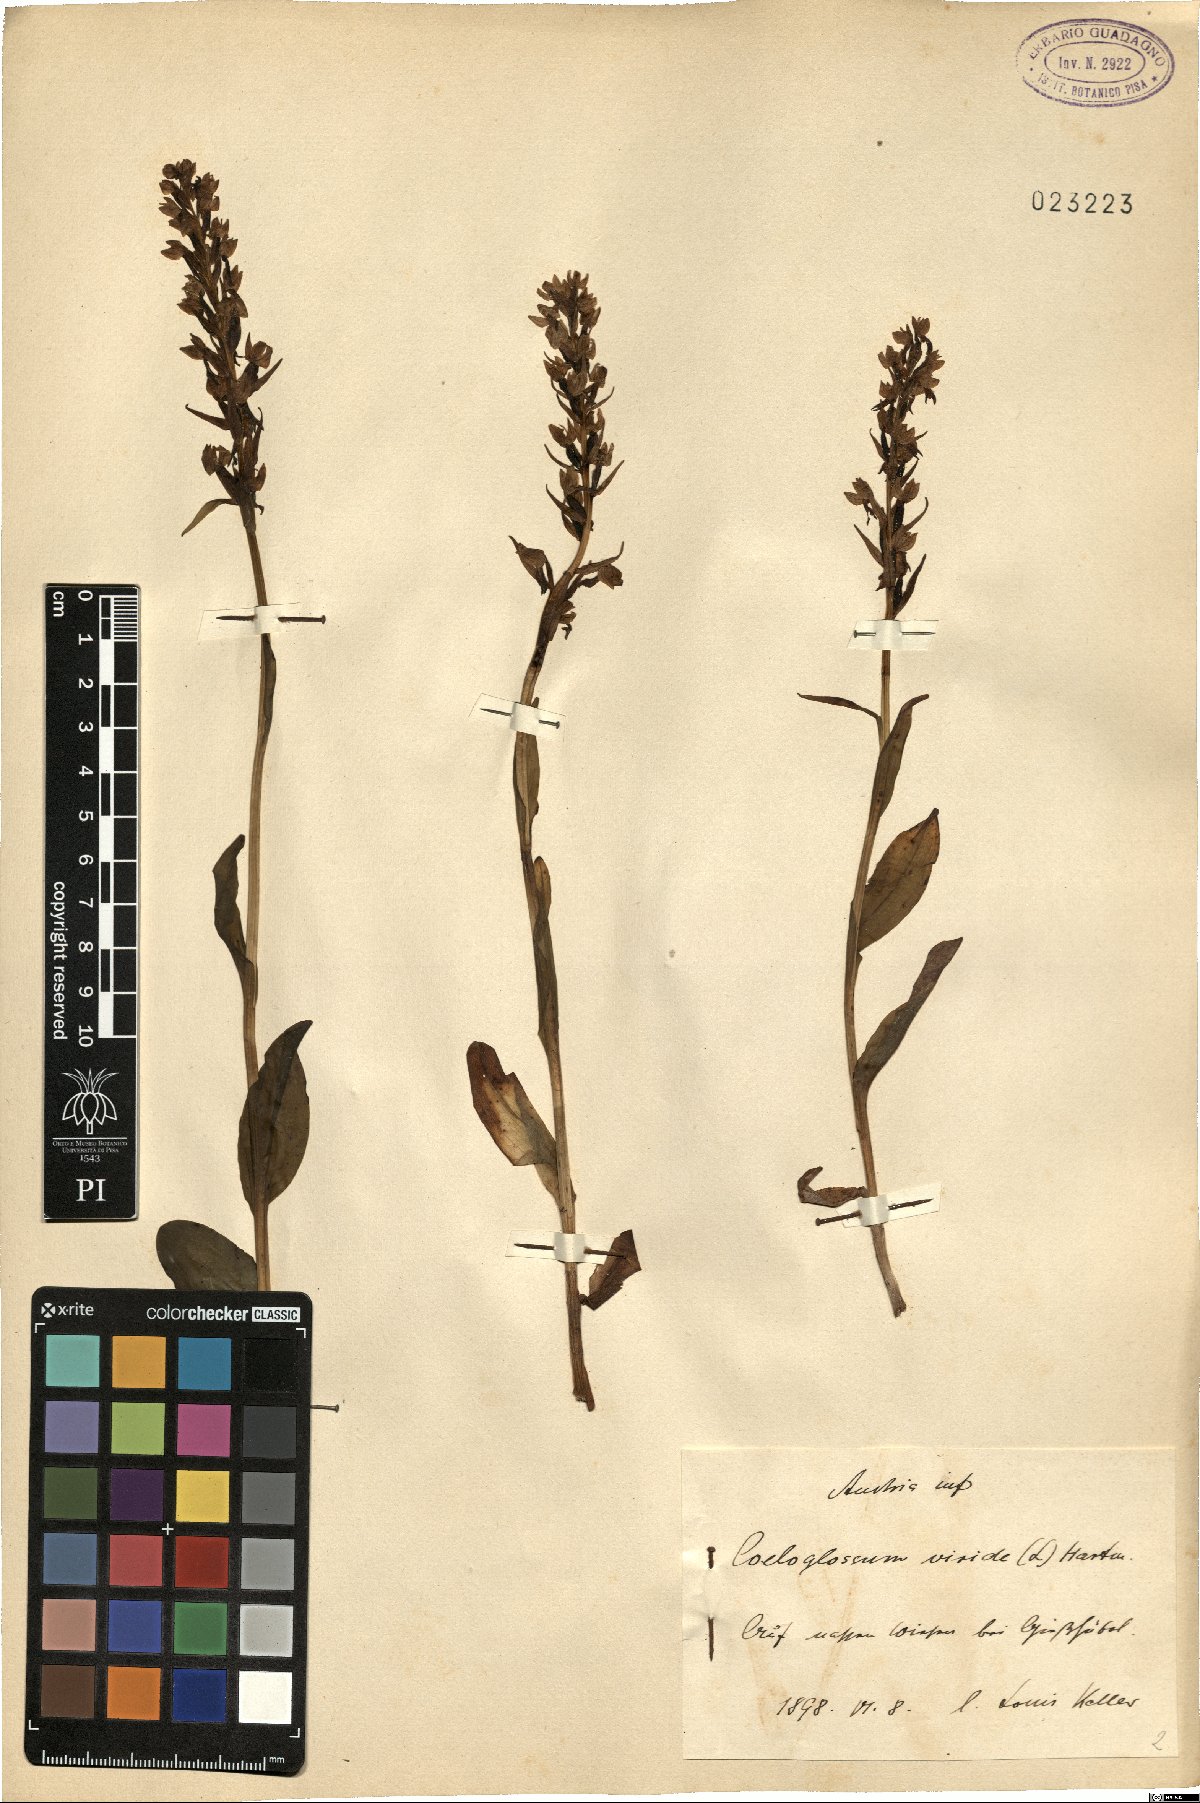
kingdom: Plantae
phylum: Tracheophyta
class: Liliopsida
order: Asparagales
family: Orchidaceae
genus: Dactylorhiza
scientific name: Dactylorhiza viridis
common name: Longbract frog orchid
